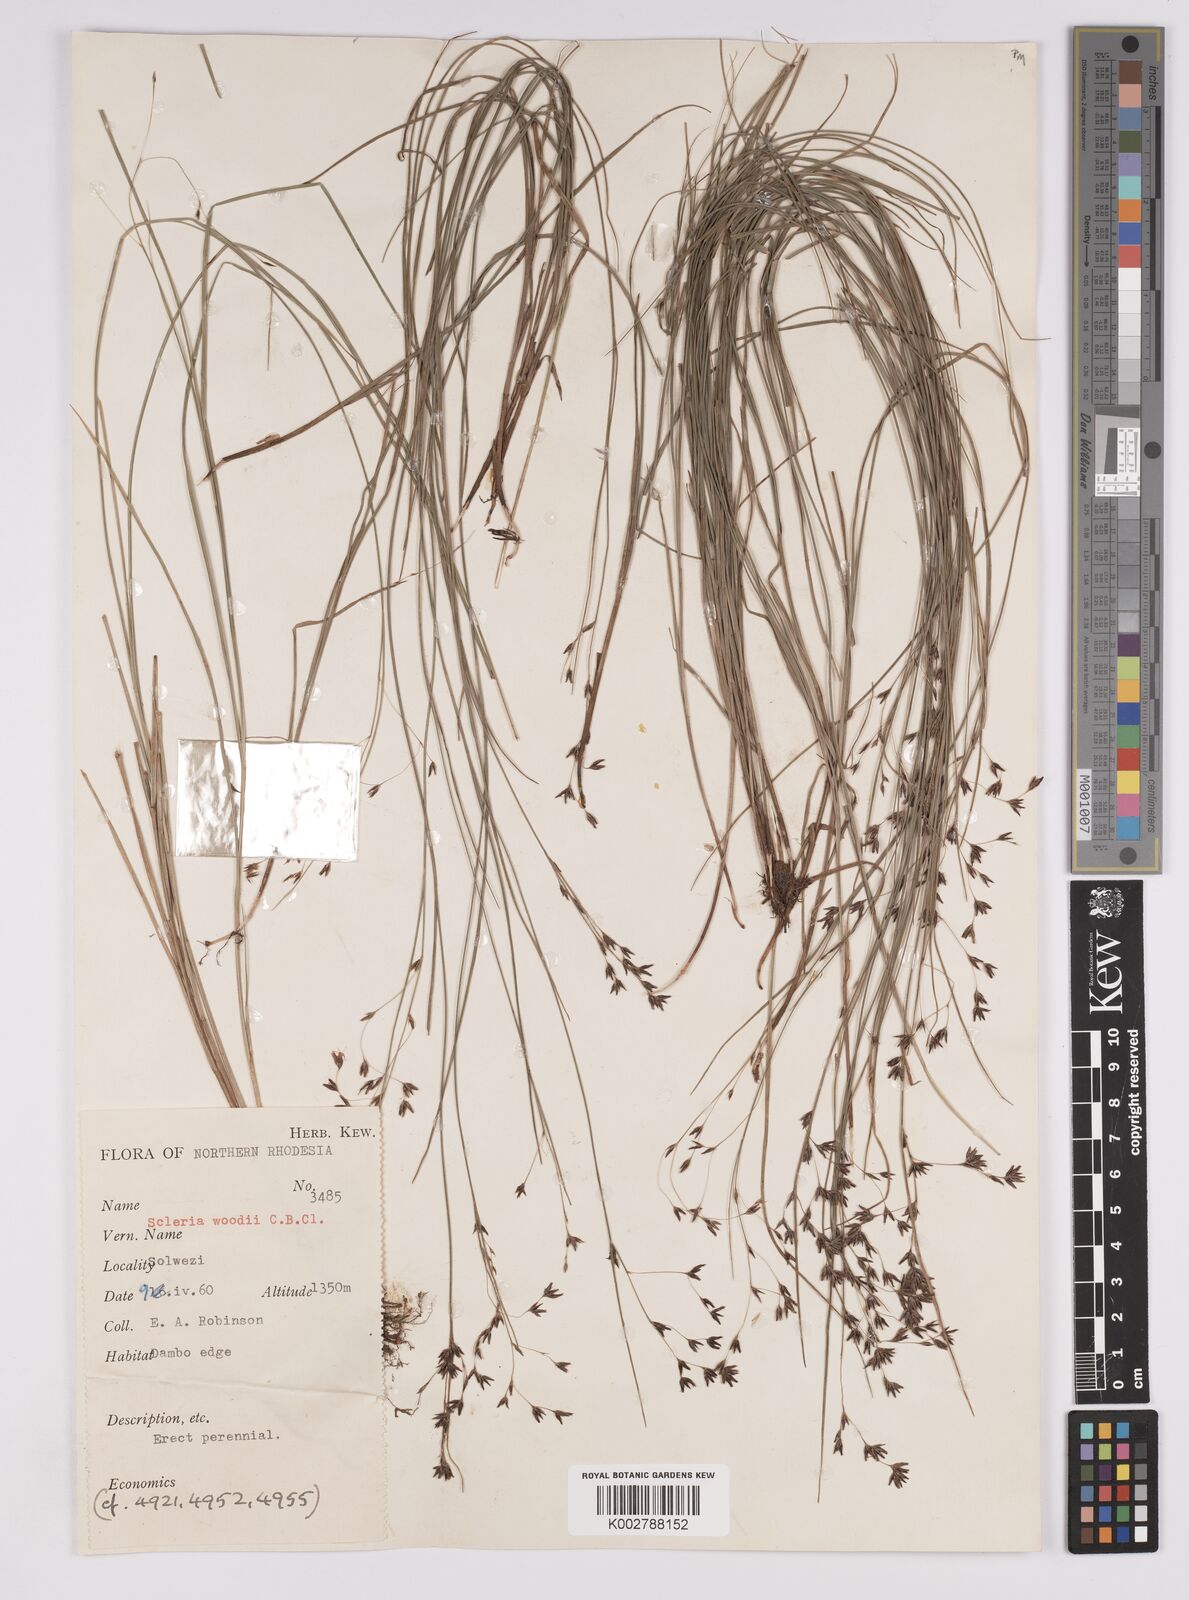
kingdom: Plantae
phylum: Tracheophyta
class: Liliopsida
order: Poales
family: Cyperaceae
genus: Scleria
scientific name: Scleria polyrrhiza
